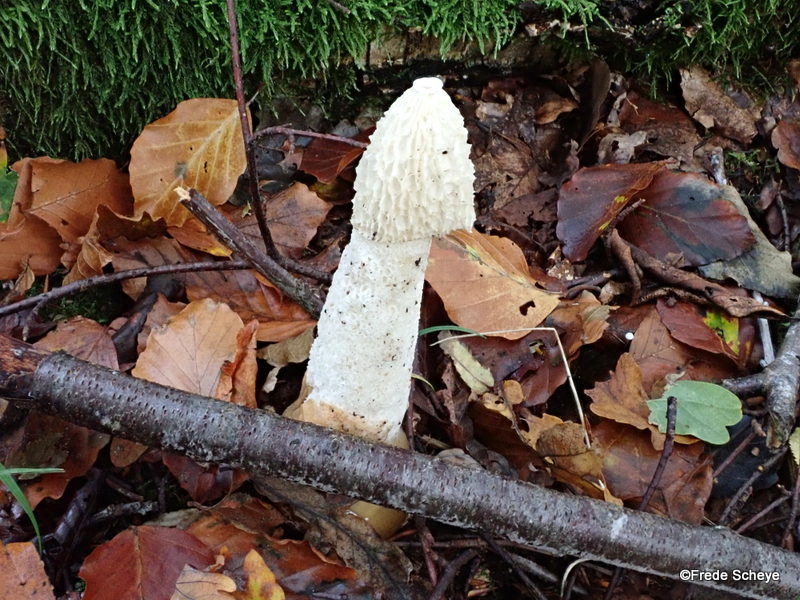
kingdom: Fungi
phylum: Basidiomycota
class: Agaricomycetes
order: Phallales
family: Phallaceae
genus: Phallus
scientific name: Phallus impudicus
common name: almindelig stinksvamp
